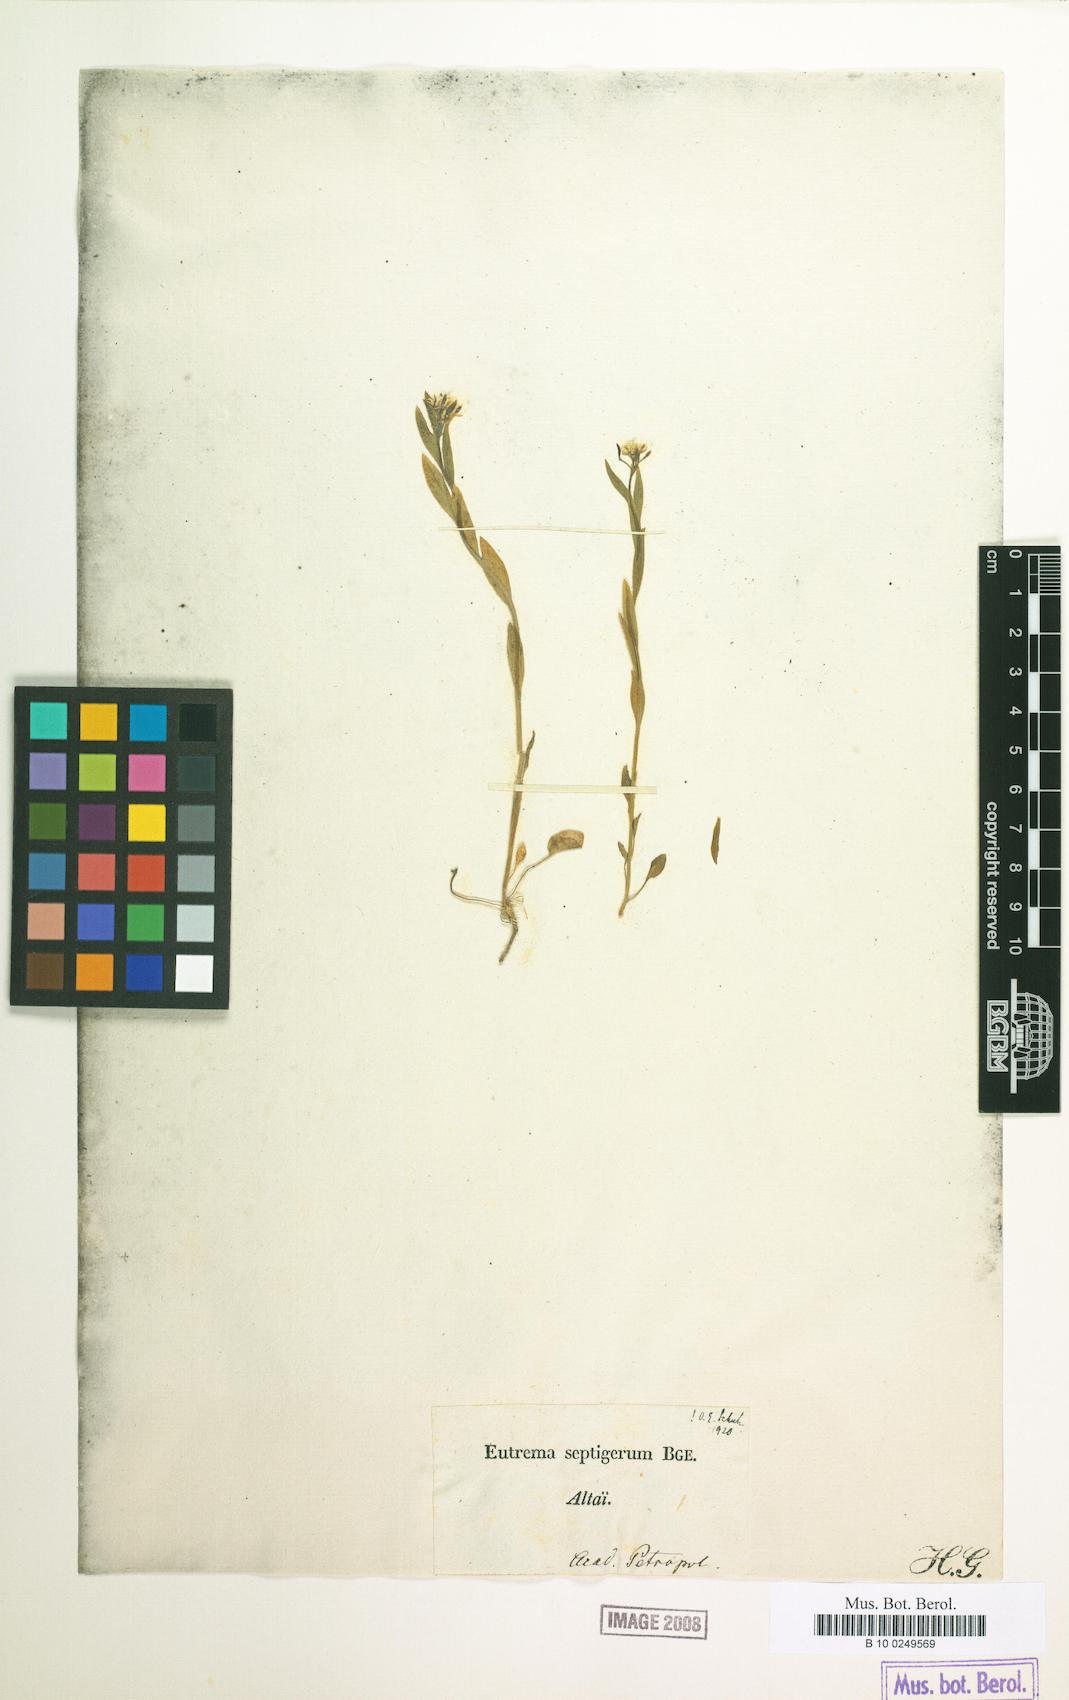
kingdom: Plantae
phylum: Tracheophyta
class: Magnoliopsida
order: Brassicales
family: Brassicaceae
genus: Eutrema
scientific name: Eutrema edwardsii
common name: Penland alpine fen mustard
